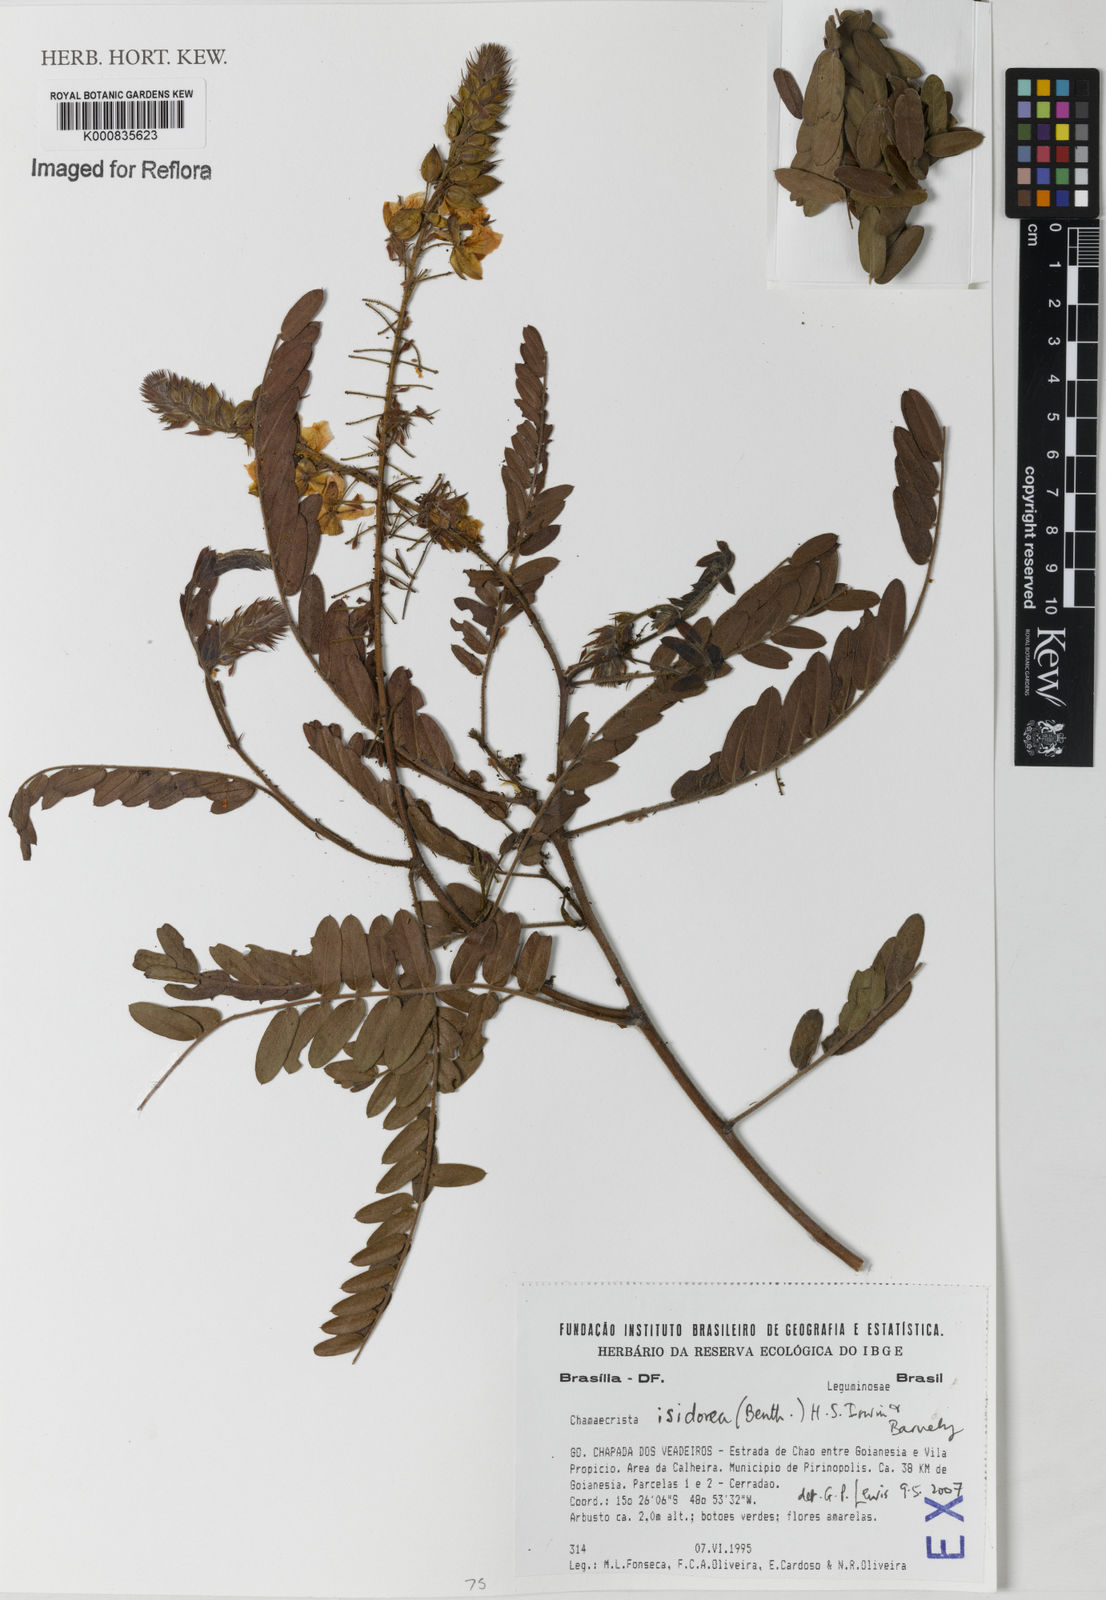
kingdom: Plantae
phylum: Tracheophyta
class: Magnoliopsida
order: Fabales
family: Fabaceae
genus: Chamaecrista
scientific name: Chamaecrista isidorea
